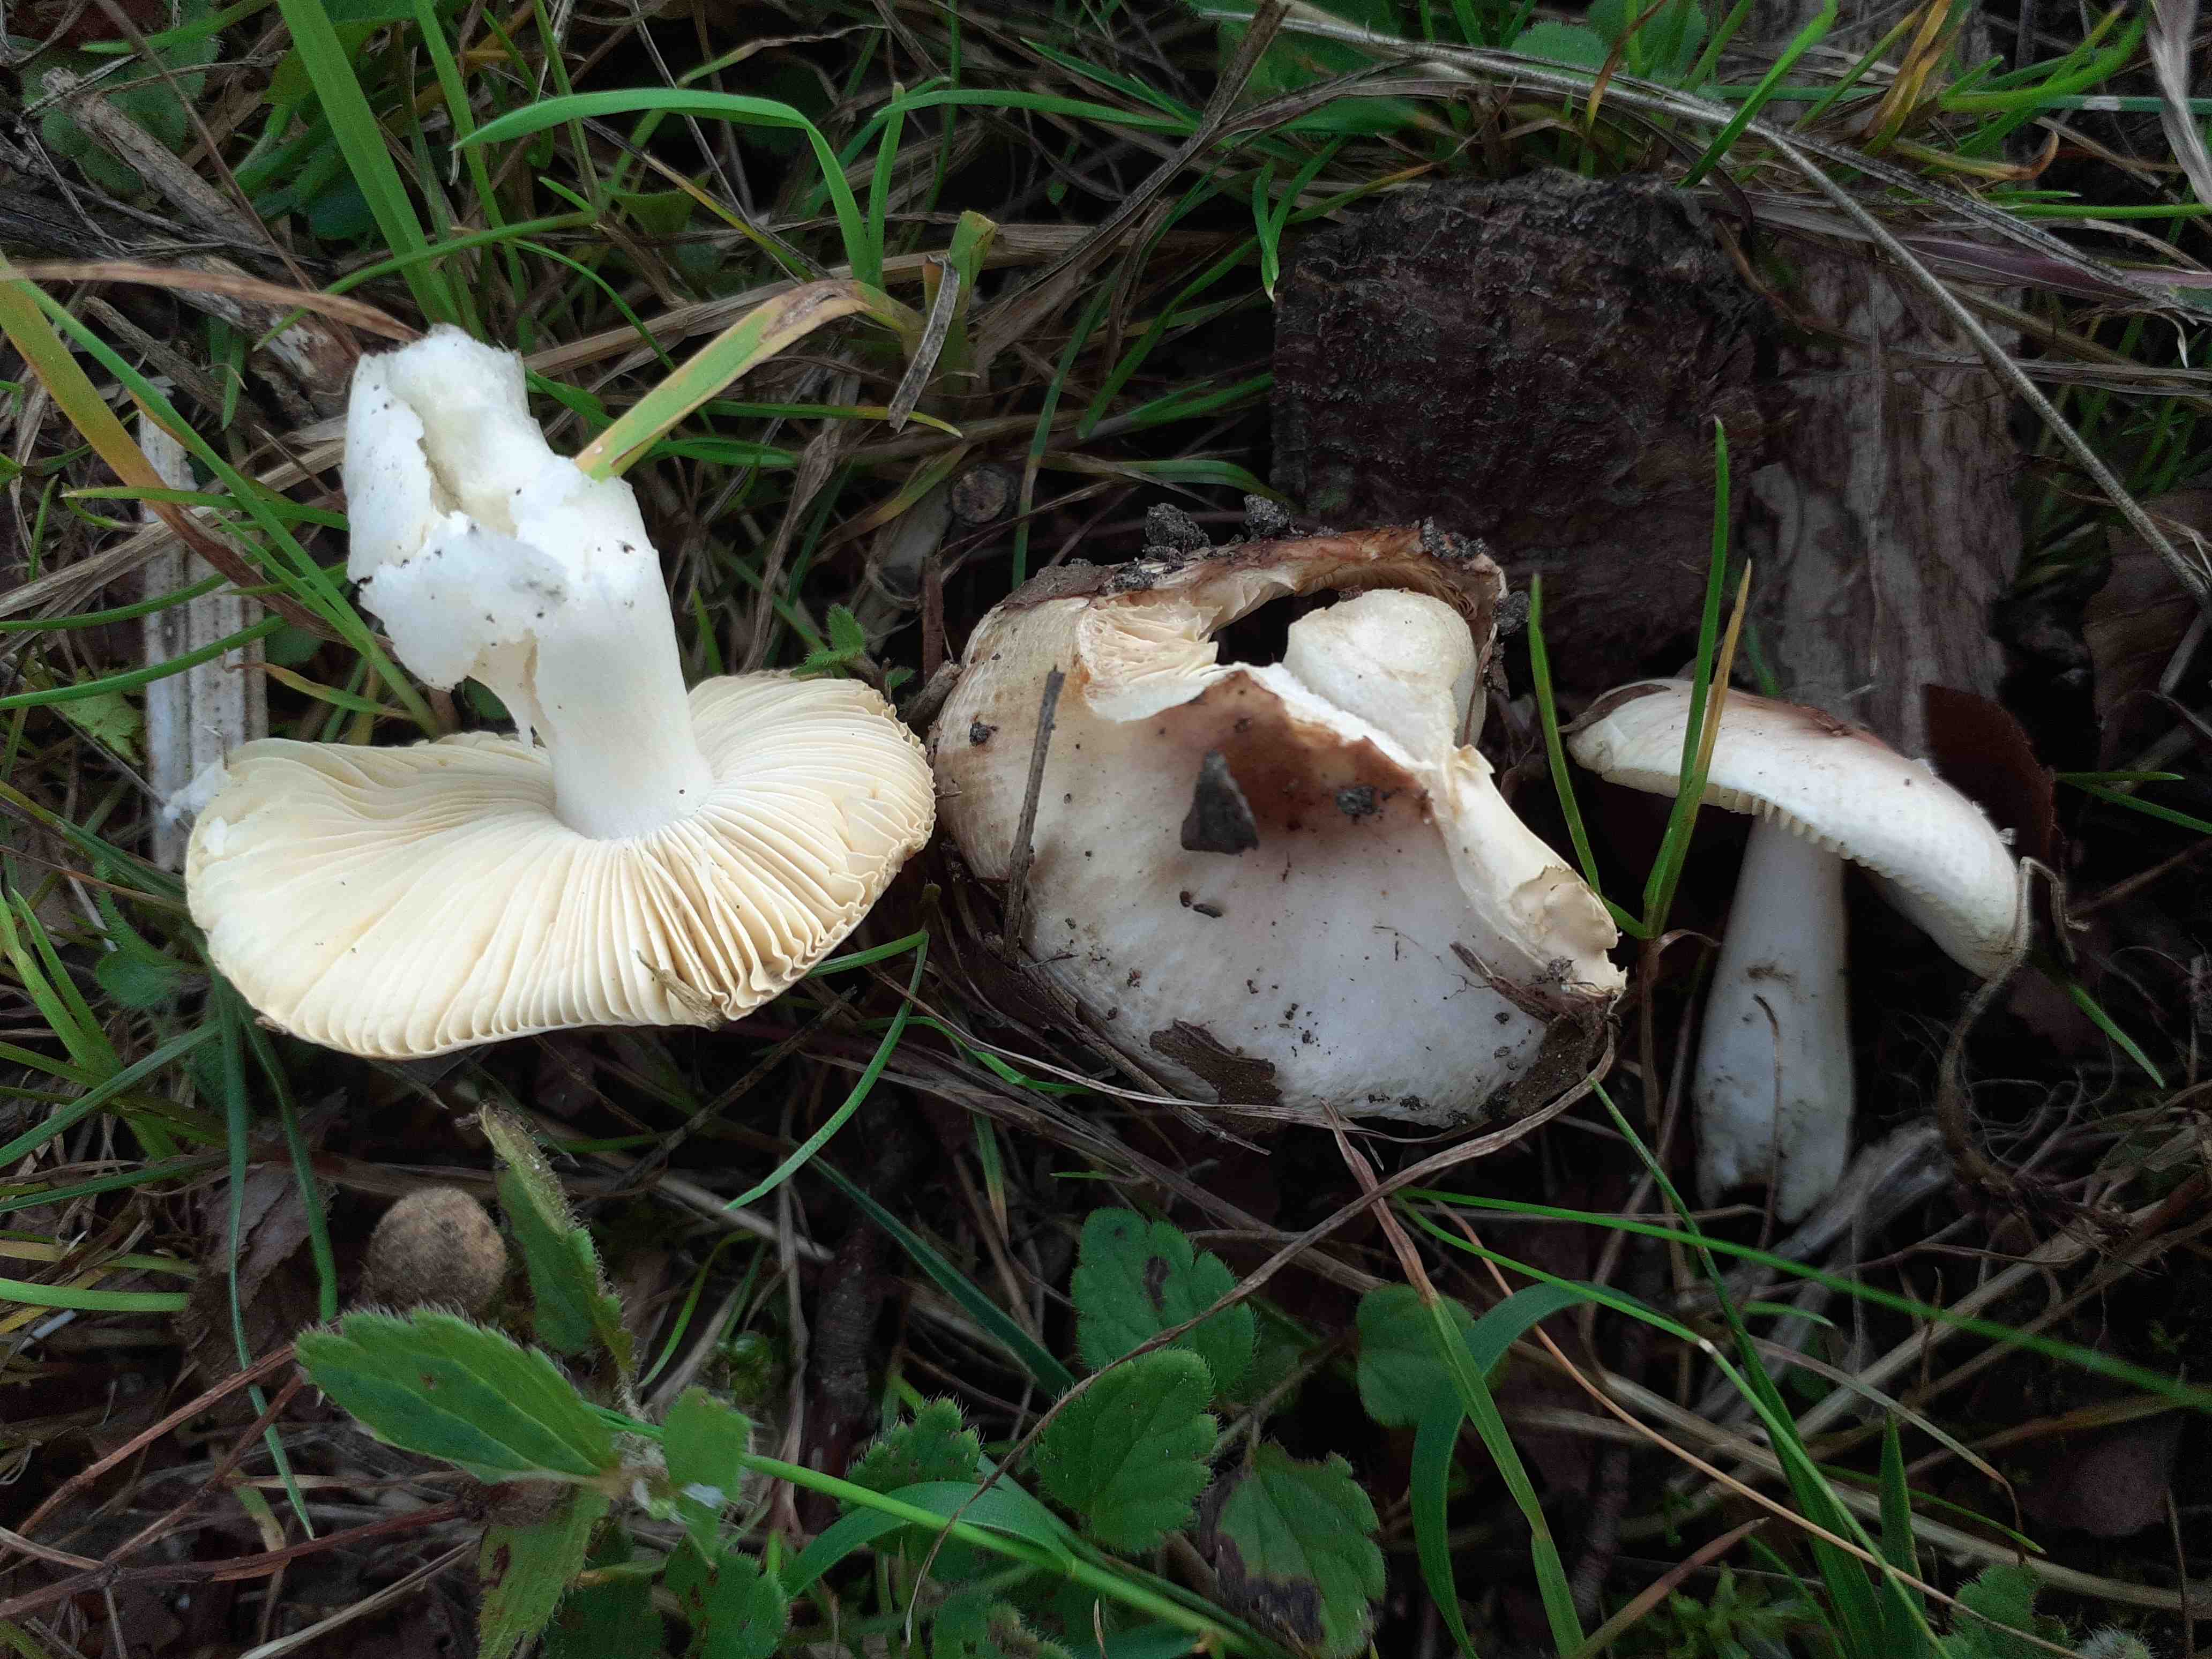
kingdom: Fungi
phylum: Basidiomycota
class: Agaricomycetes
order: Russulales
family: Russulaceae
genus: Russula
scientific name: Russula risigallina
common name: abrikos-skørhat
